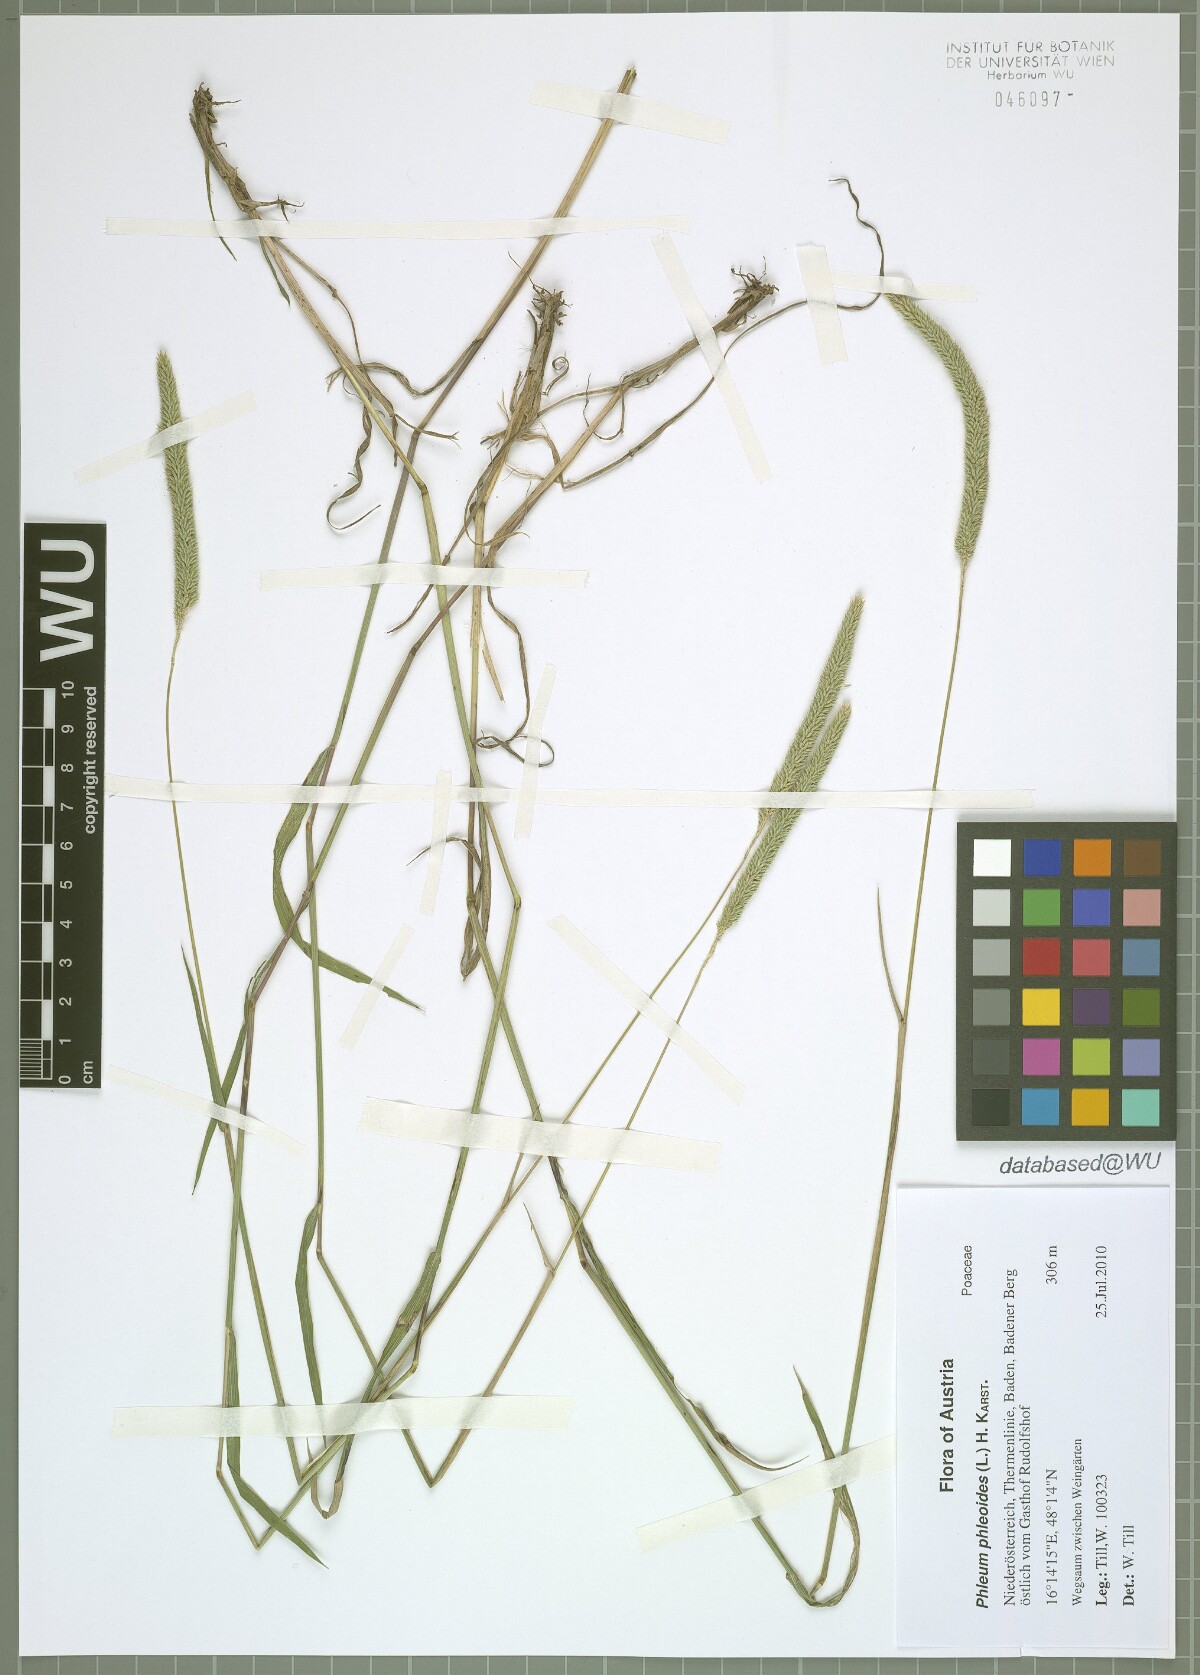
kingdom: Plantae
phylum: Tracheophyta
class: Liliopsida
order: Poales
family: Poaceae
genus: Phleum
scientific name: Phleum phleoides
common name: Purple-stem cat's-tail
